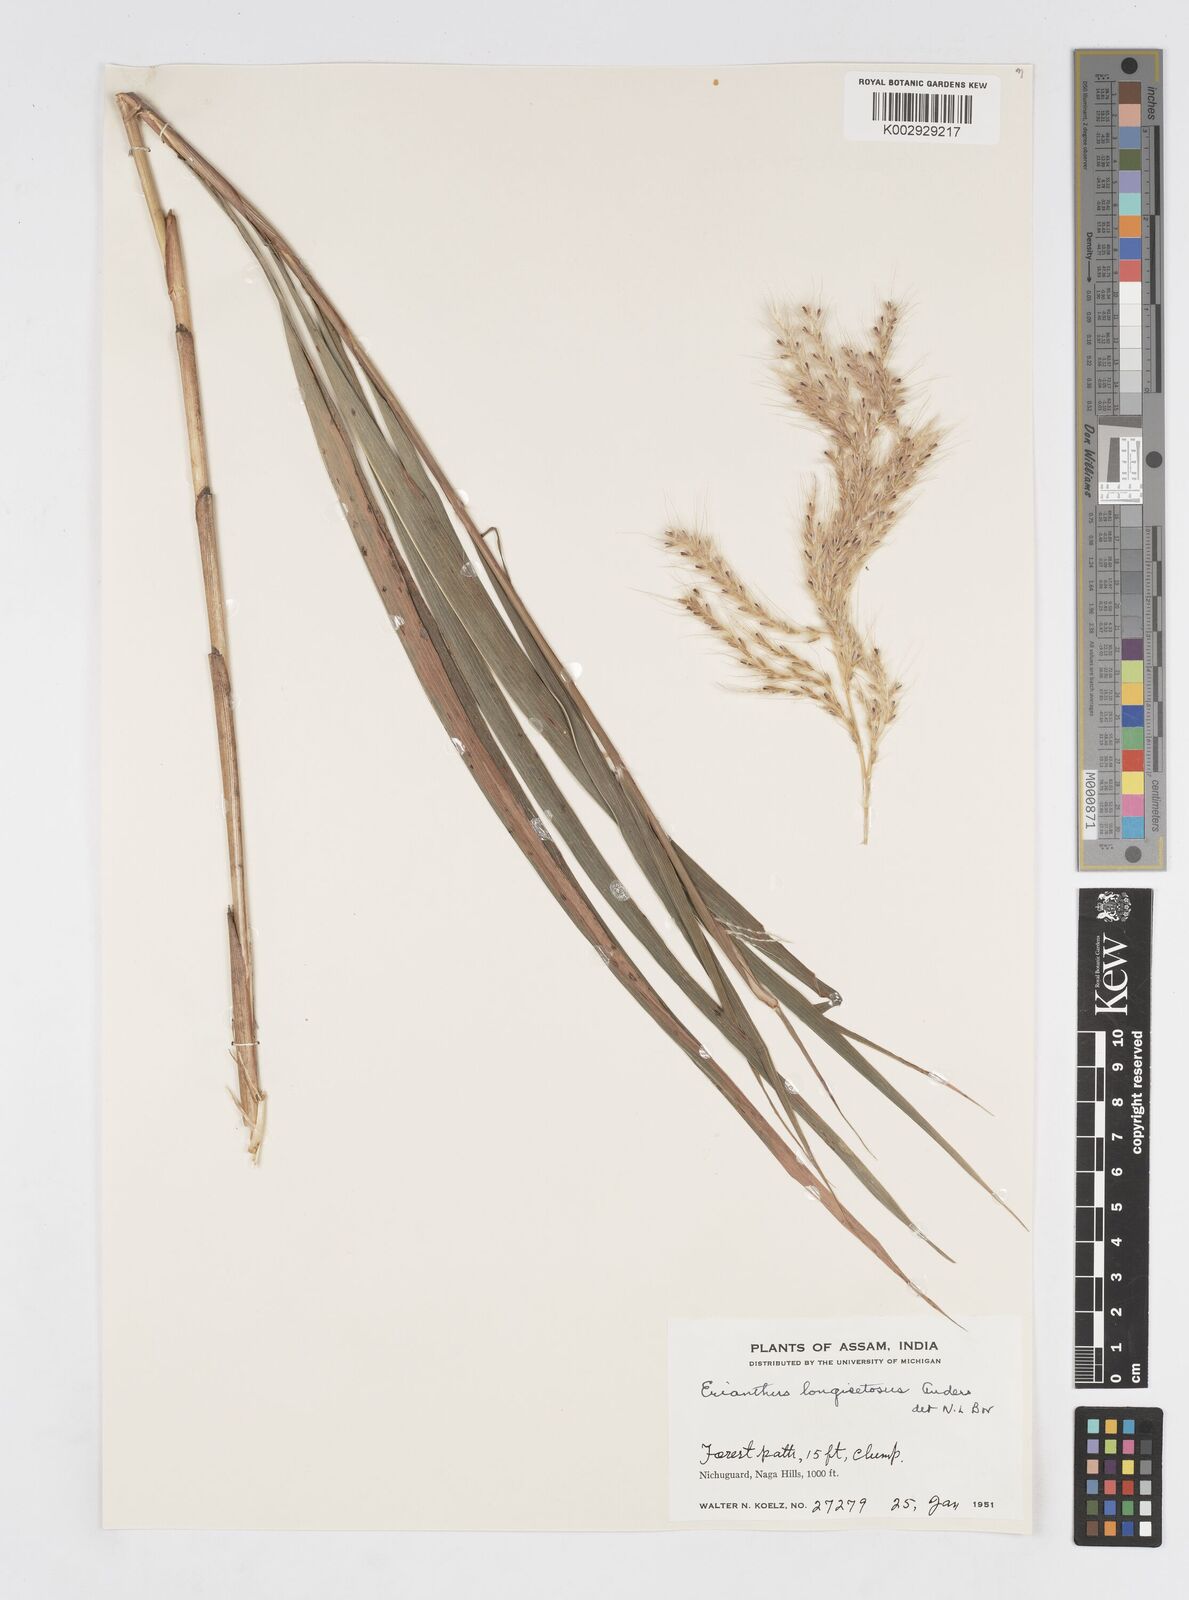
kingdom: Plantae
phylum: Tracheophyta
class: Liliopsida
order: Poales
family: Poaceae
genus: Melinis
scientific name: Melinis longiseta
